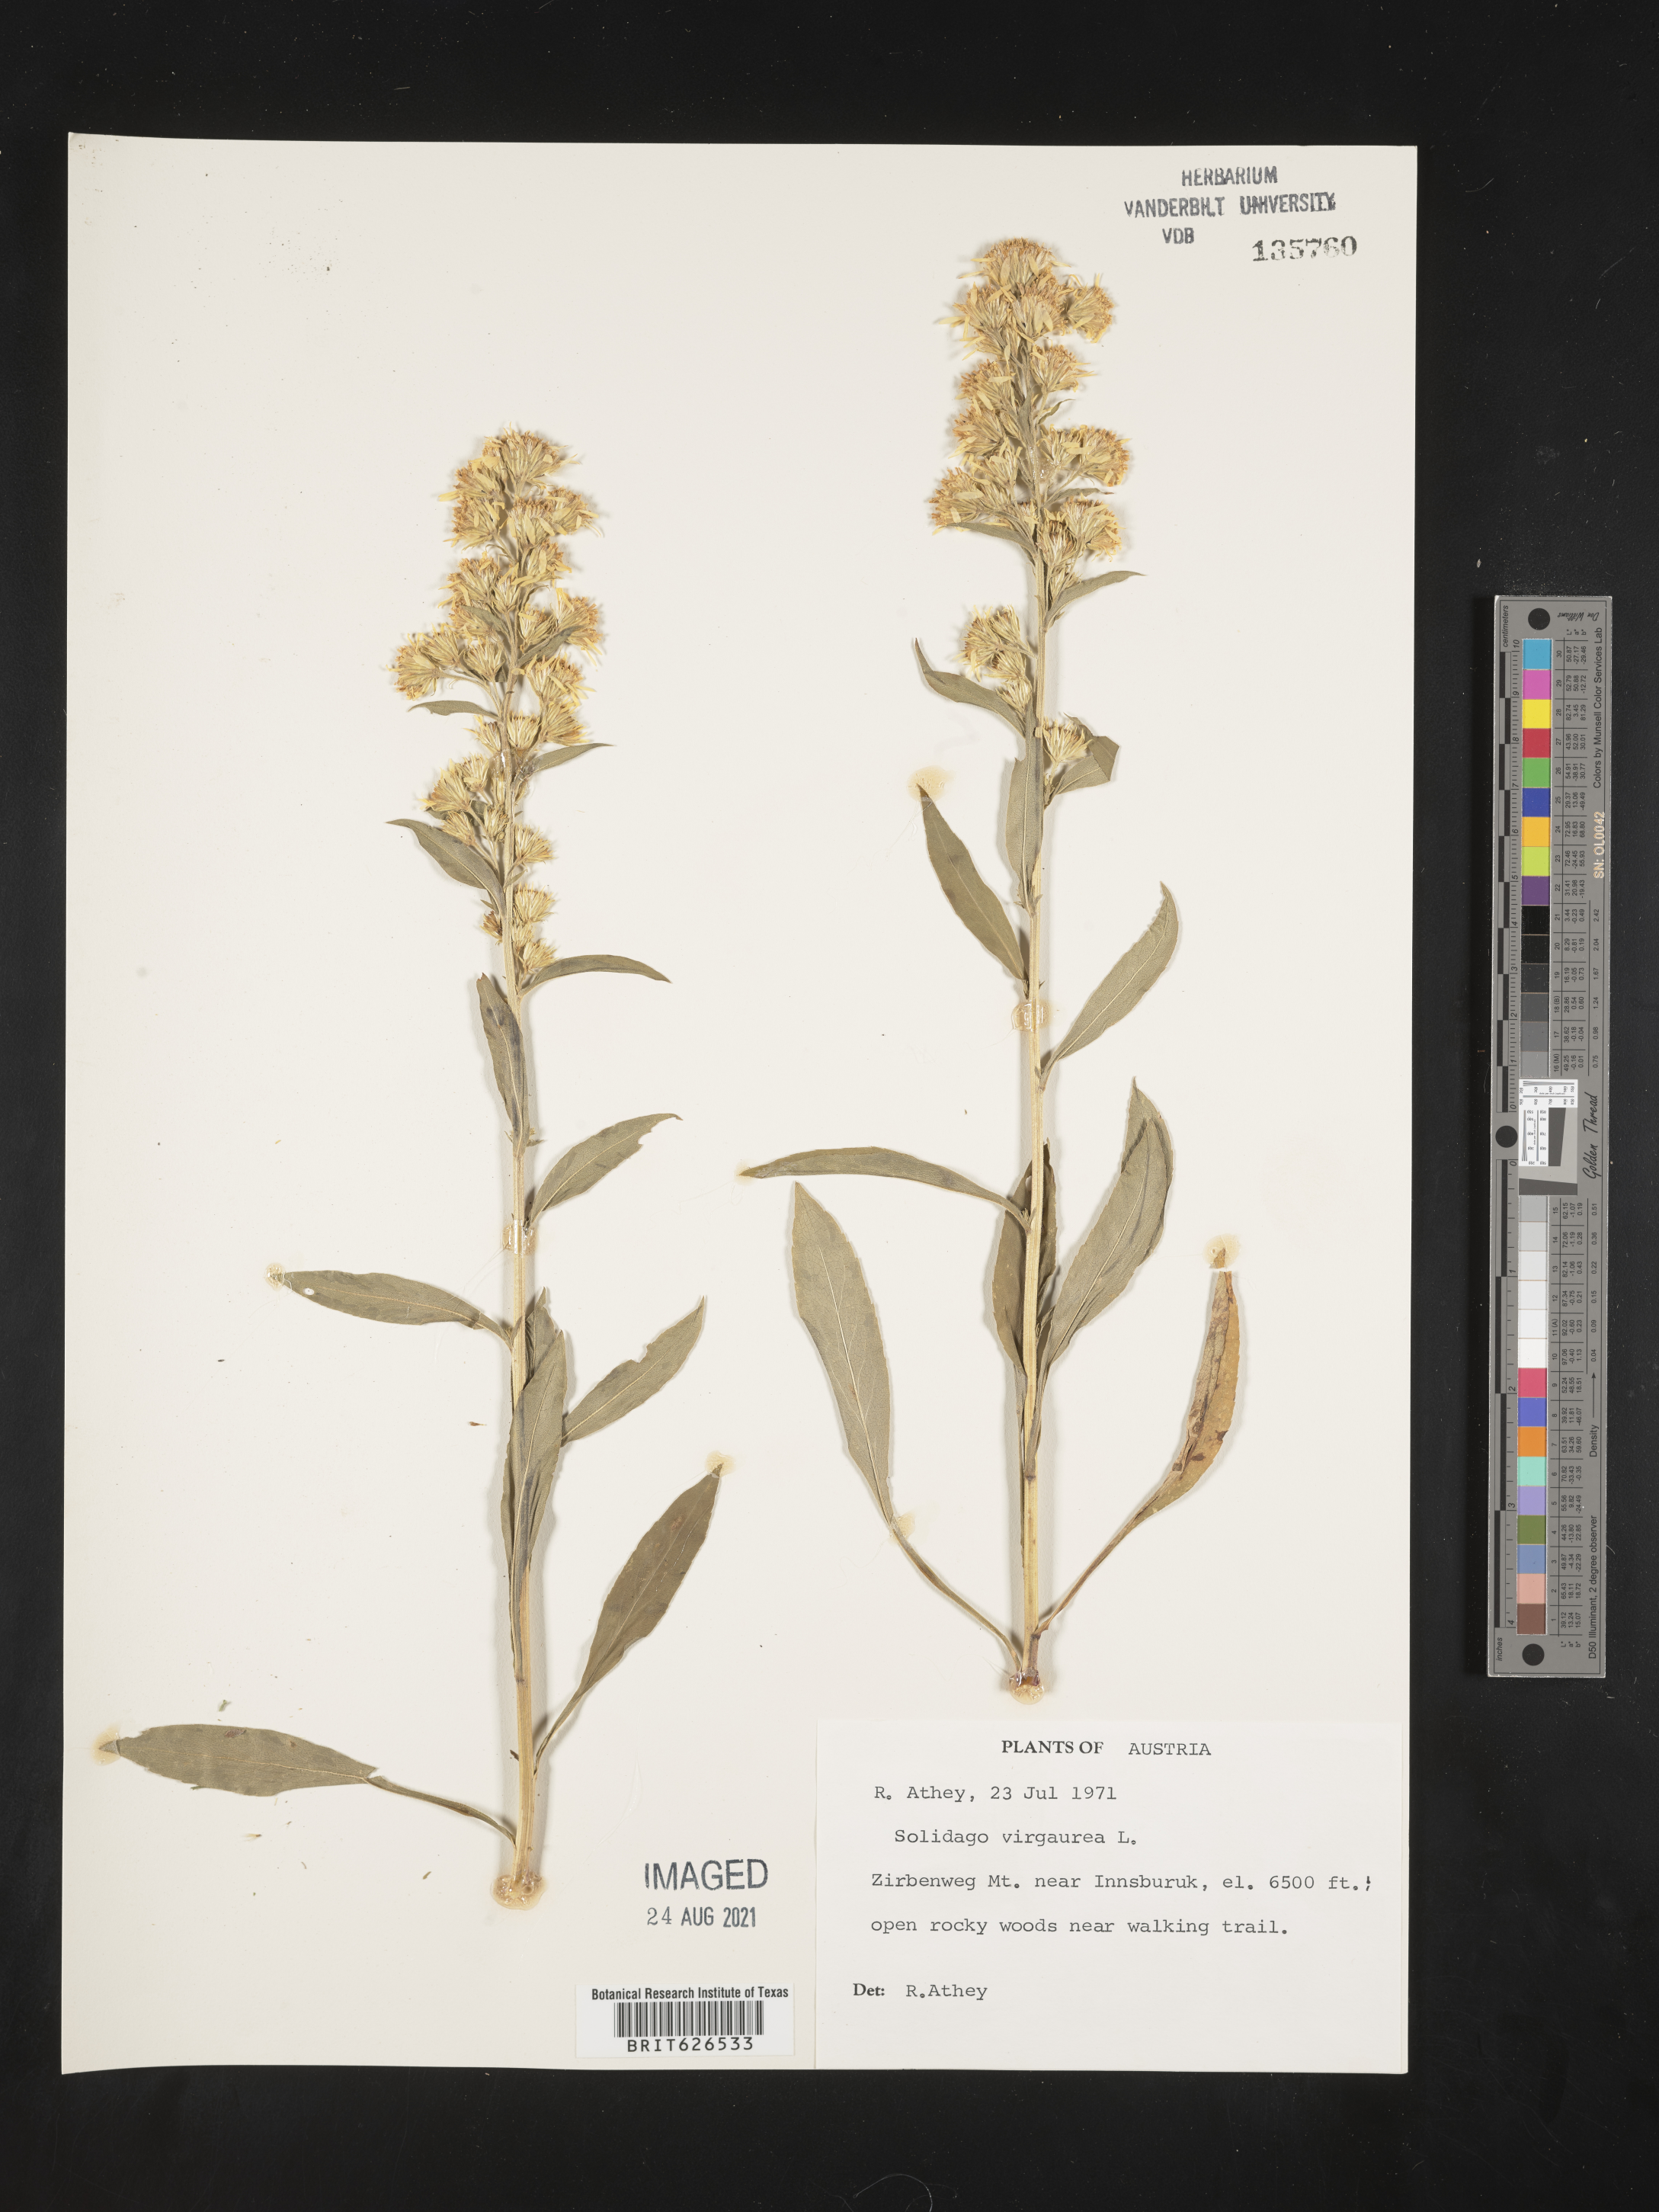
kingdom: Plantae
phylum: Tracheophyta
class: Magnoliopsida
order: Asterales
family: Asteraceae
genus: Solidago
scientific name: Solidago virgaurea
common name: Goldenrod
